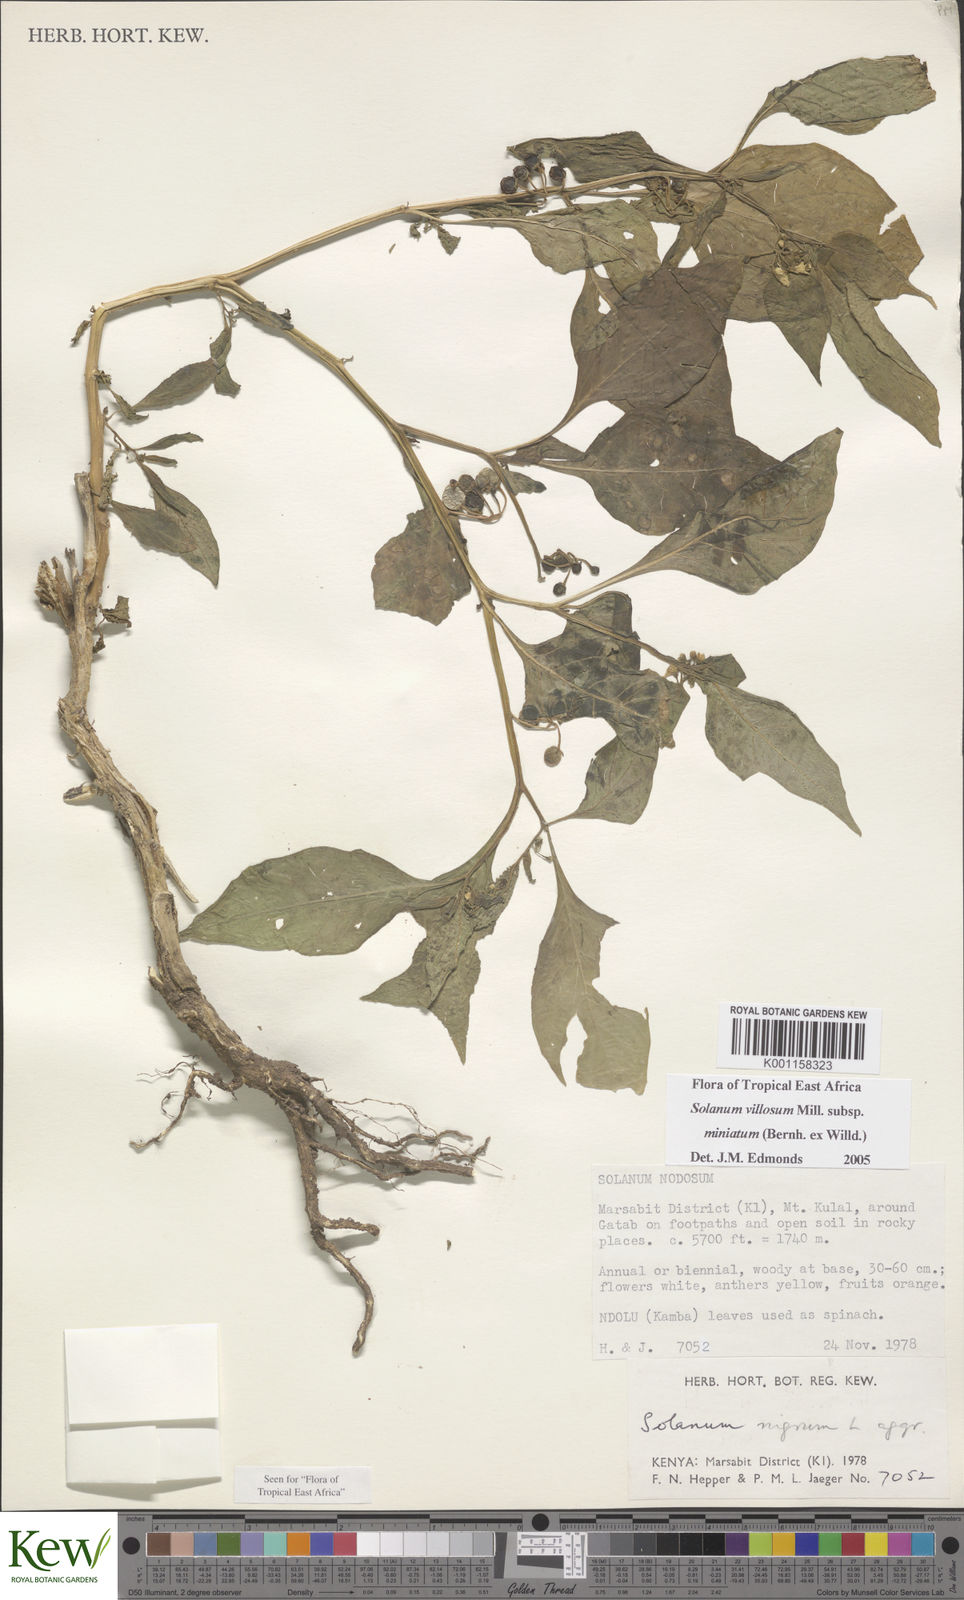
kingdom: Plantae
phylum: Tracheophyta
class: Magnoliopsida
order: Solanales
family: Solanaceae
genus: Solanum
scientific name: Solanum villosum
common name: Red nightshade
